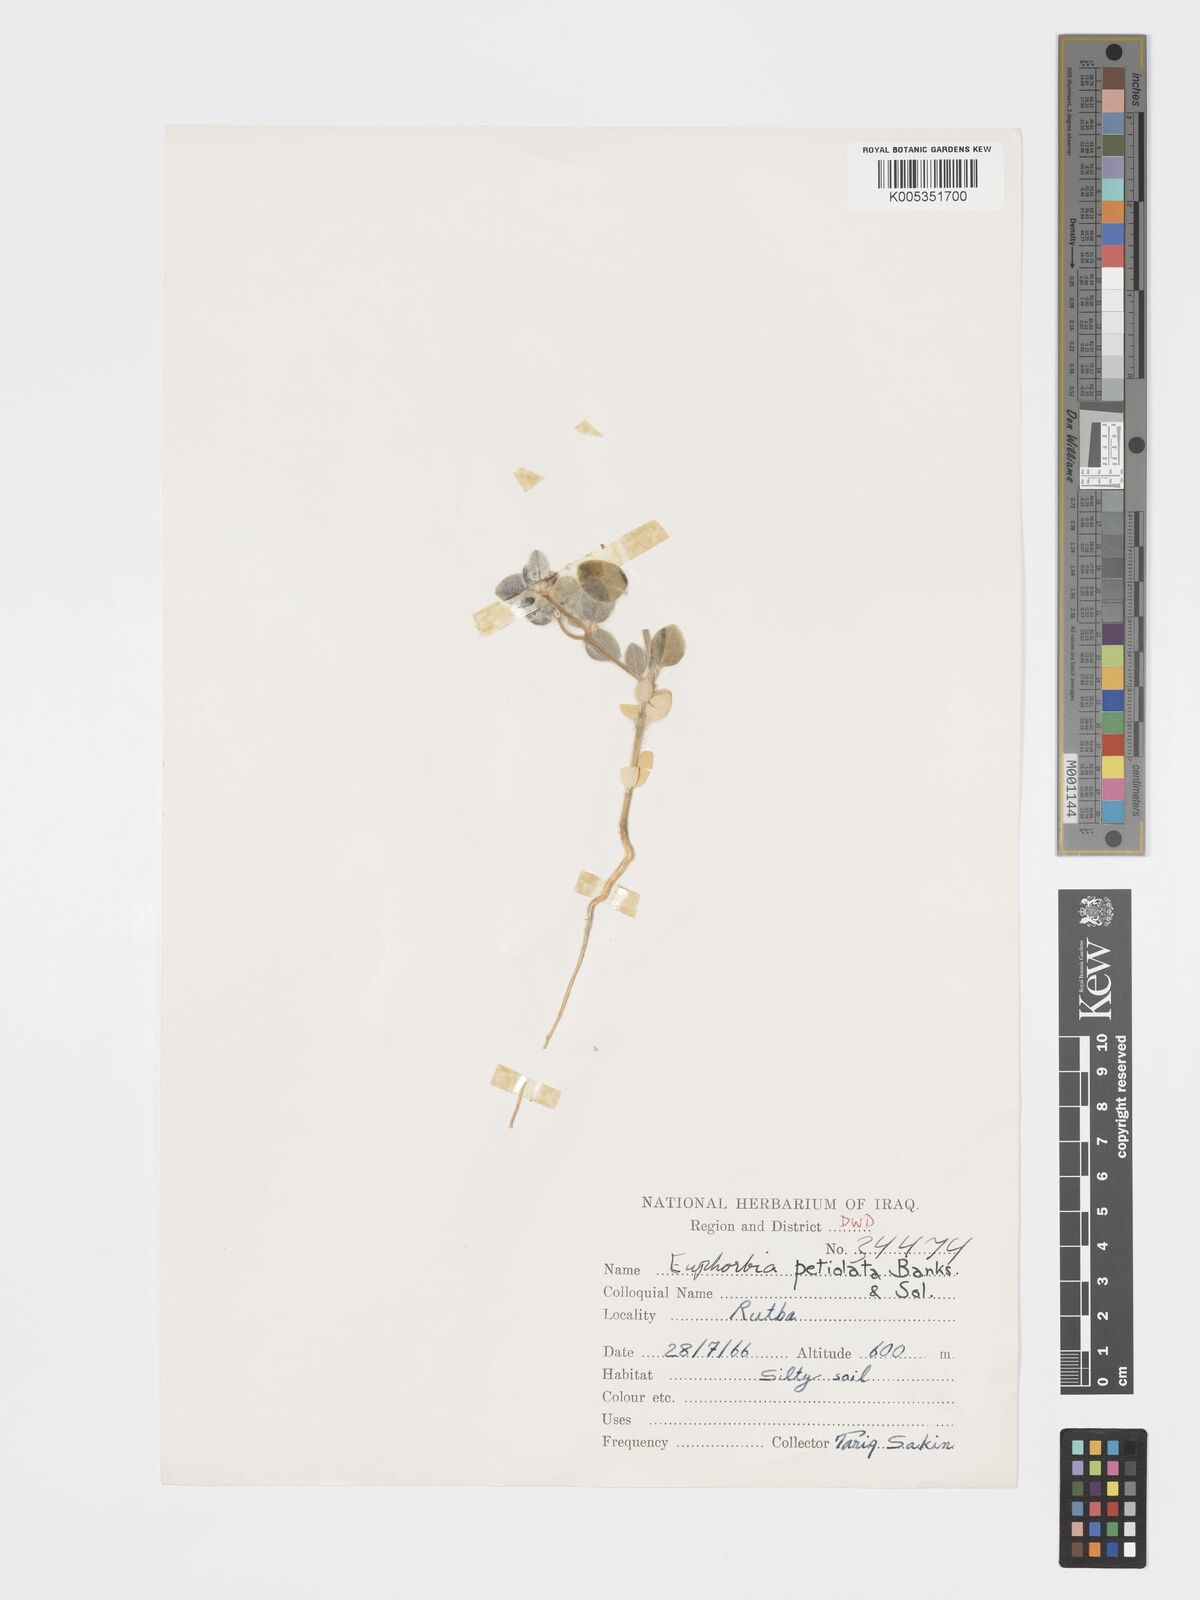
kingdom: Plantae
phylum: Tracheophyta
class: Magnoliopsida
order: Malpighiales
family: Euphorbiaceae
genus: Euphorbia
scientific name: Euphorbia petiolata
